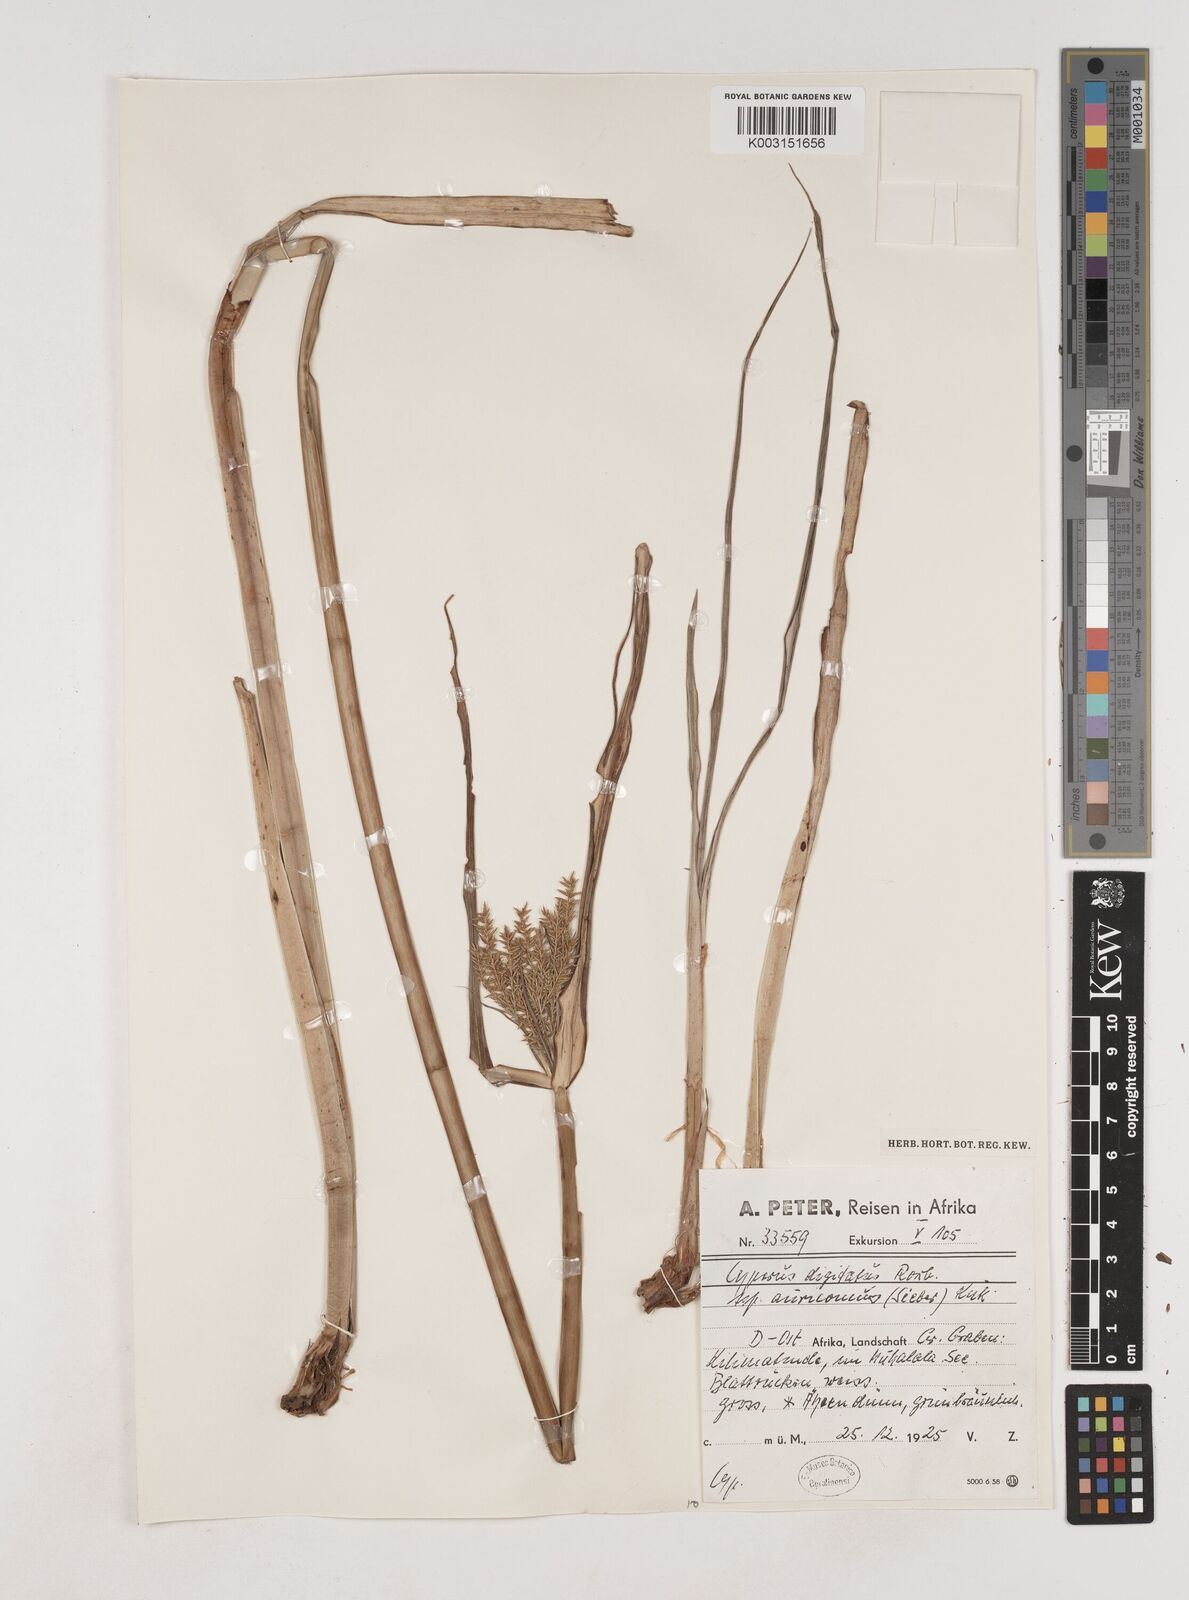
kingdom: Plantae
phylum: Tracheophyta
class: Liliopsida
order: Poales
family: Cyperaceae
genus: Cyperus
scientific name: Cyperus digitatus
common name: Finger flatsedge
